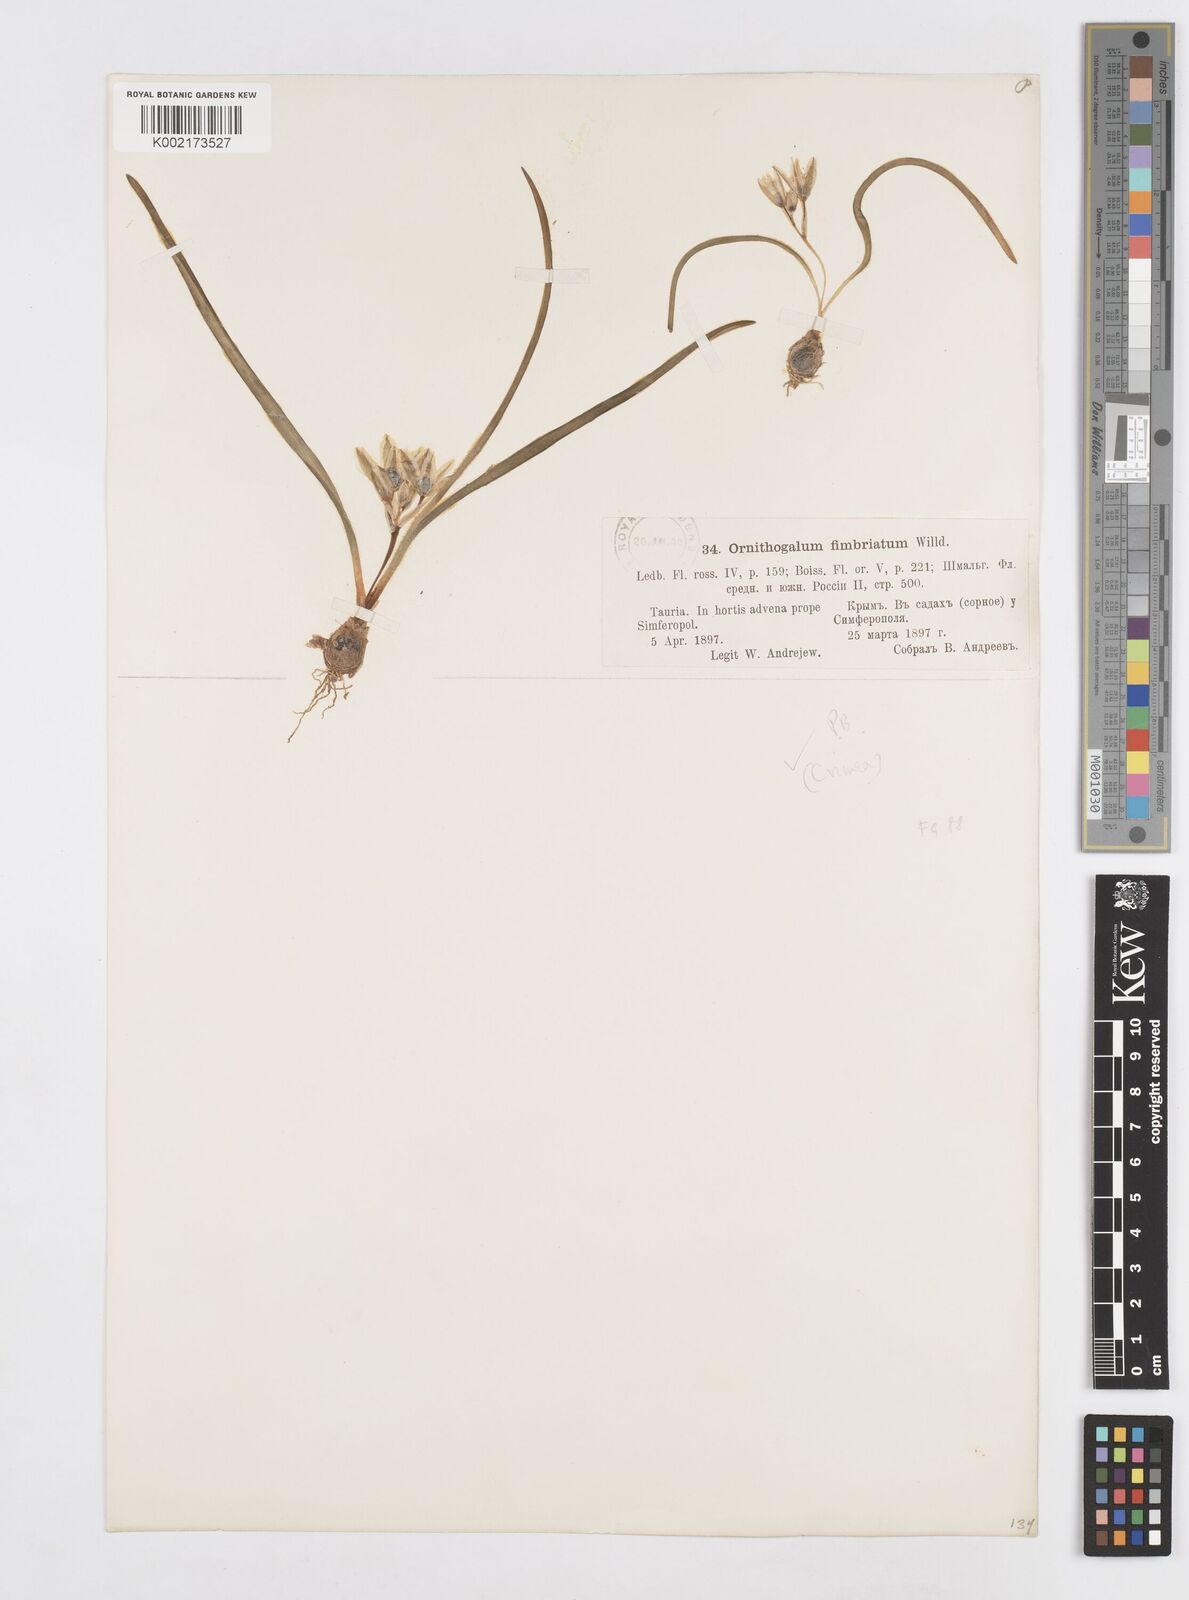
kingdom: Plantae
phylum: Tracheophyta
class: Liliopsida
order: Asparagales
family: Asparagaceae
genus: Ornithogalum
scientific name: Ornithogalum fimbriatum
